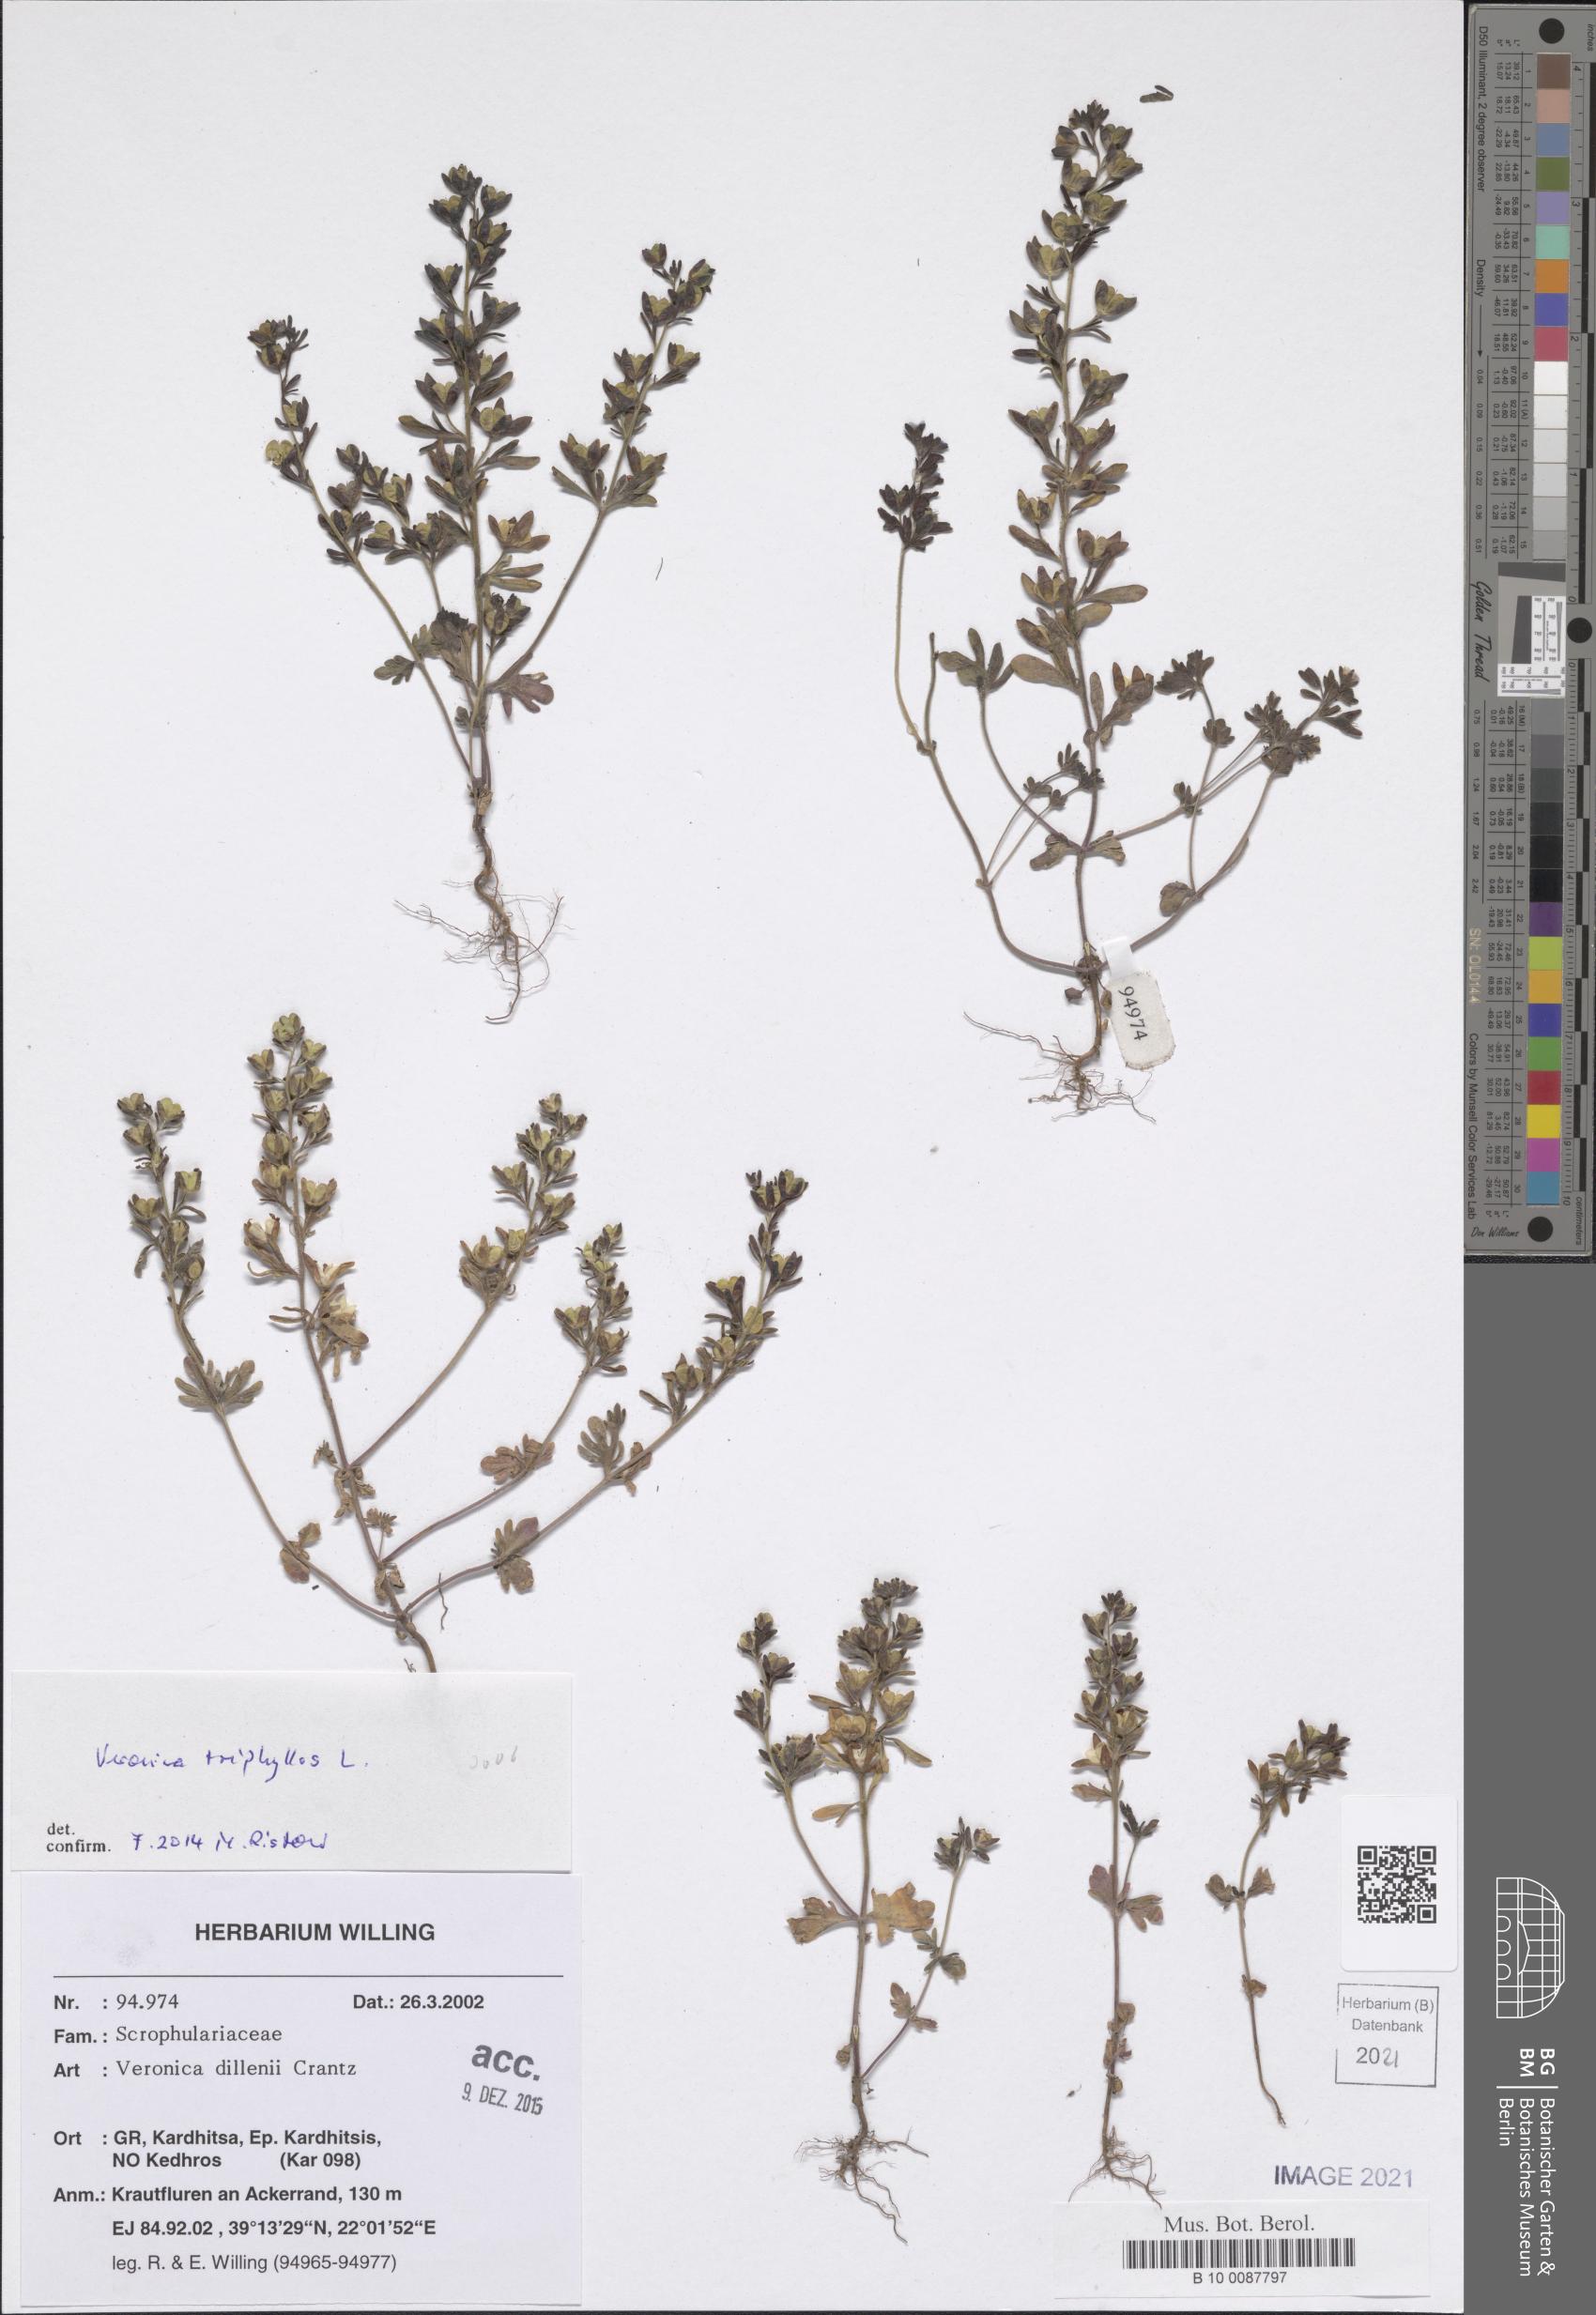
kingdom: Plantae
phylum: Tracheophyta
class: Magnoliopsida
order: Lamiales
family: Plantaginaceae
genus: Veronica
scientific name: Veronica triphyllos
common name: Fingered speedwell
